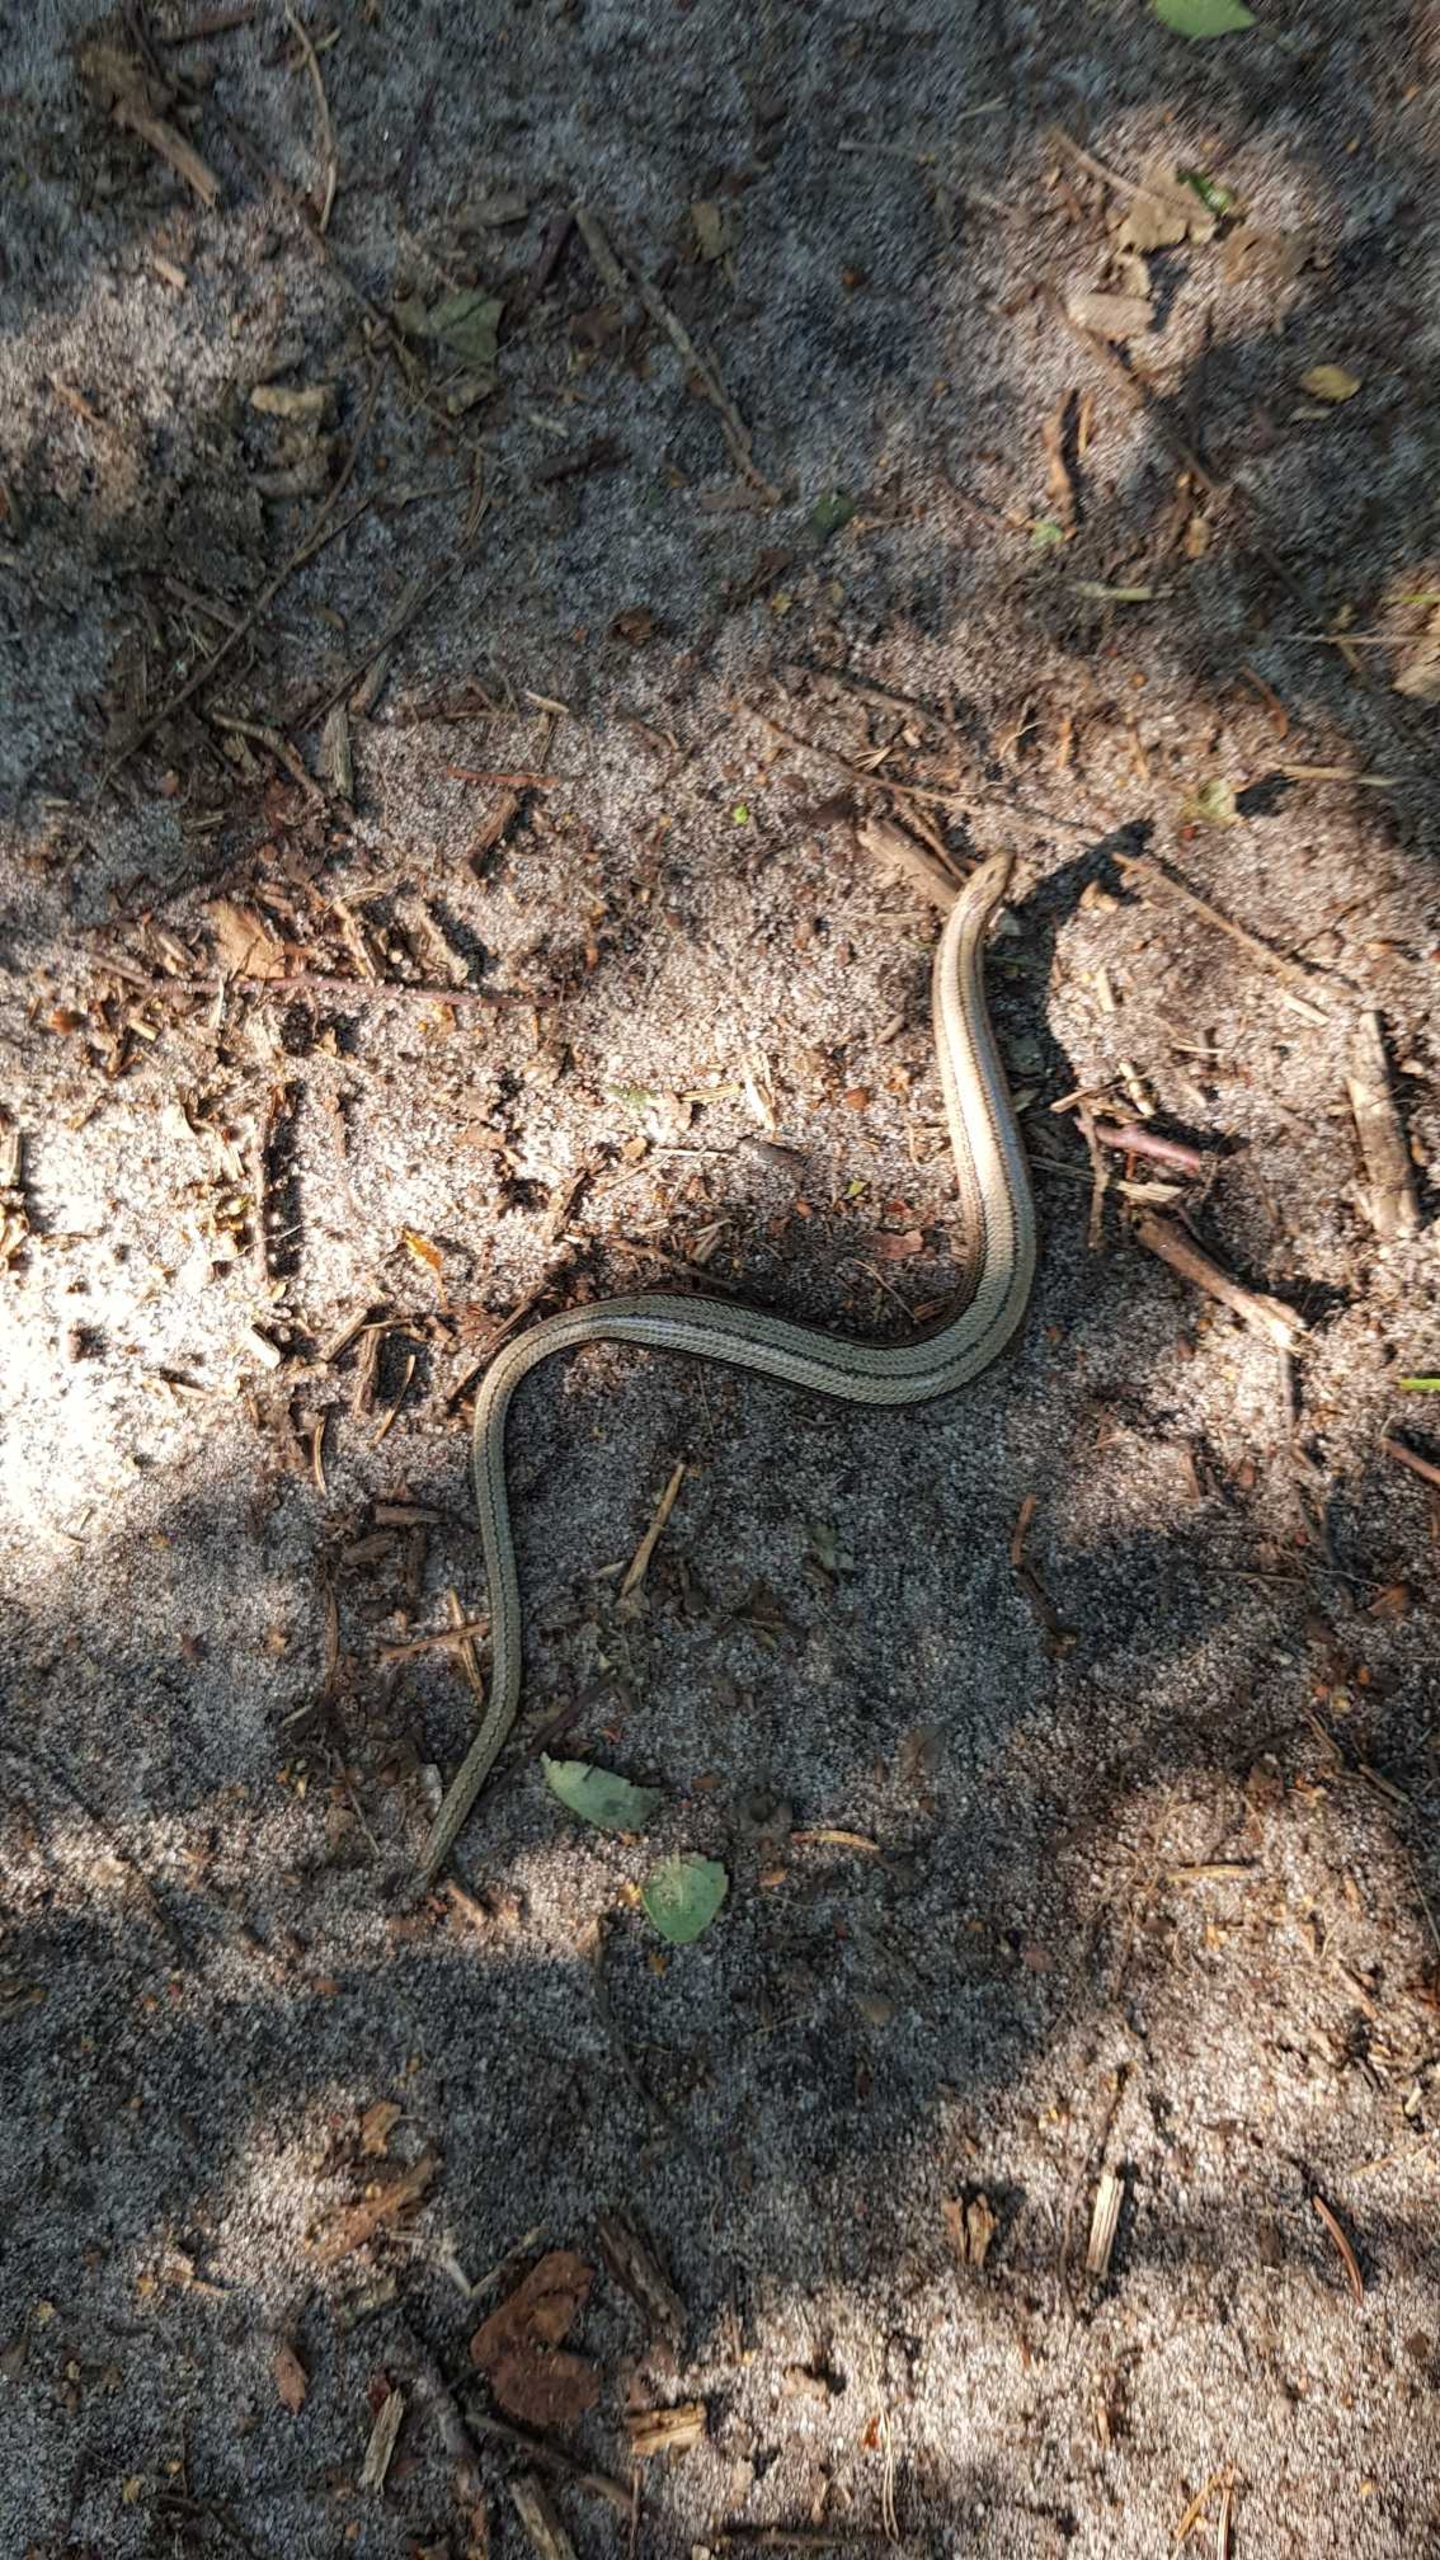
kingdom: Animalia
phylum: Chordata
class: Squamata
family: Anguidae
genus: Anguis
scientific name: Anguis fragilis
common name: Stålorm
